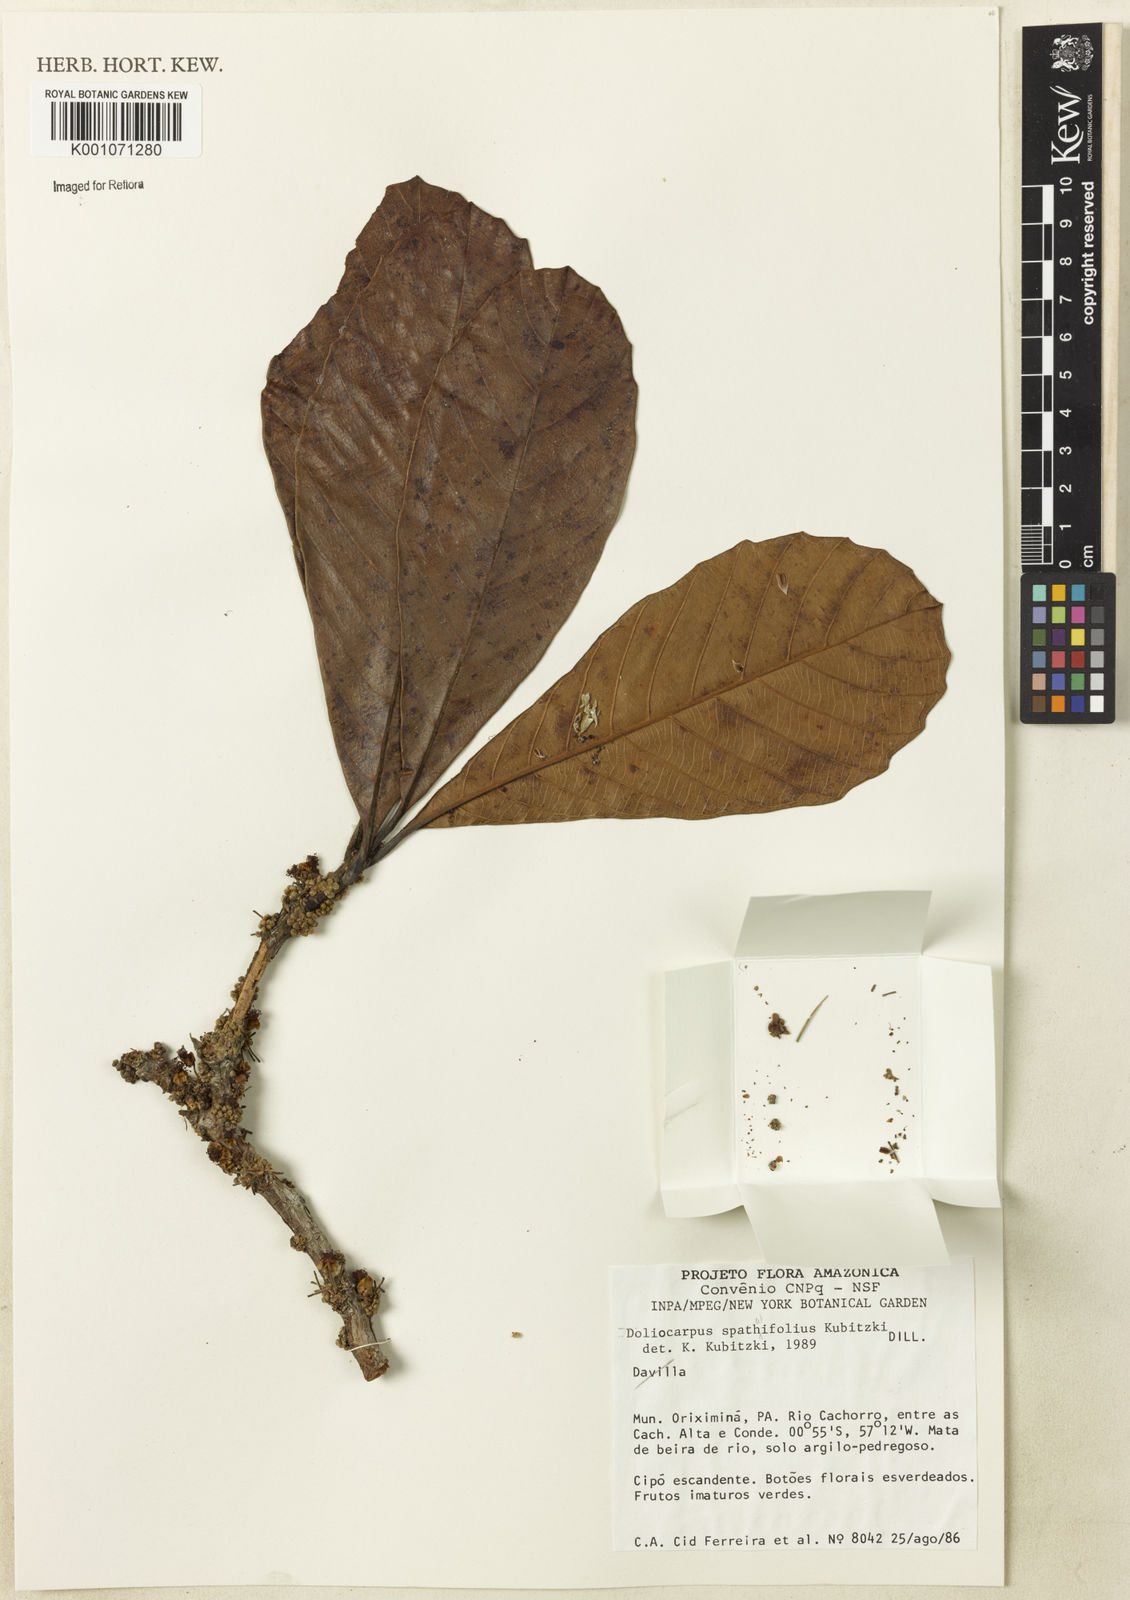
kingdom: Plantae
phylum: Tracheophyta
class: Magnoliopsida
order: Dilleniales
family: Dilleniaceae
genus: Doliocarpus
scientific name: Doliocarpus
